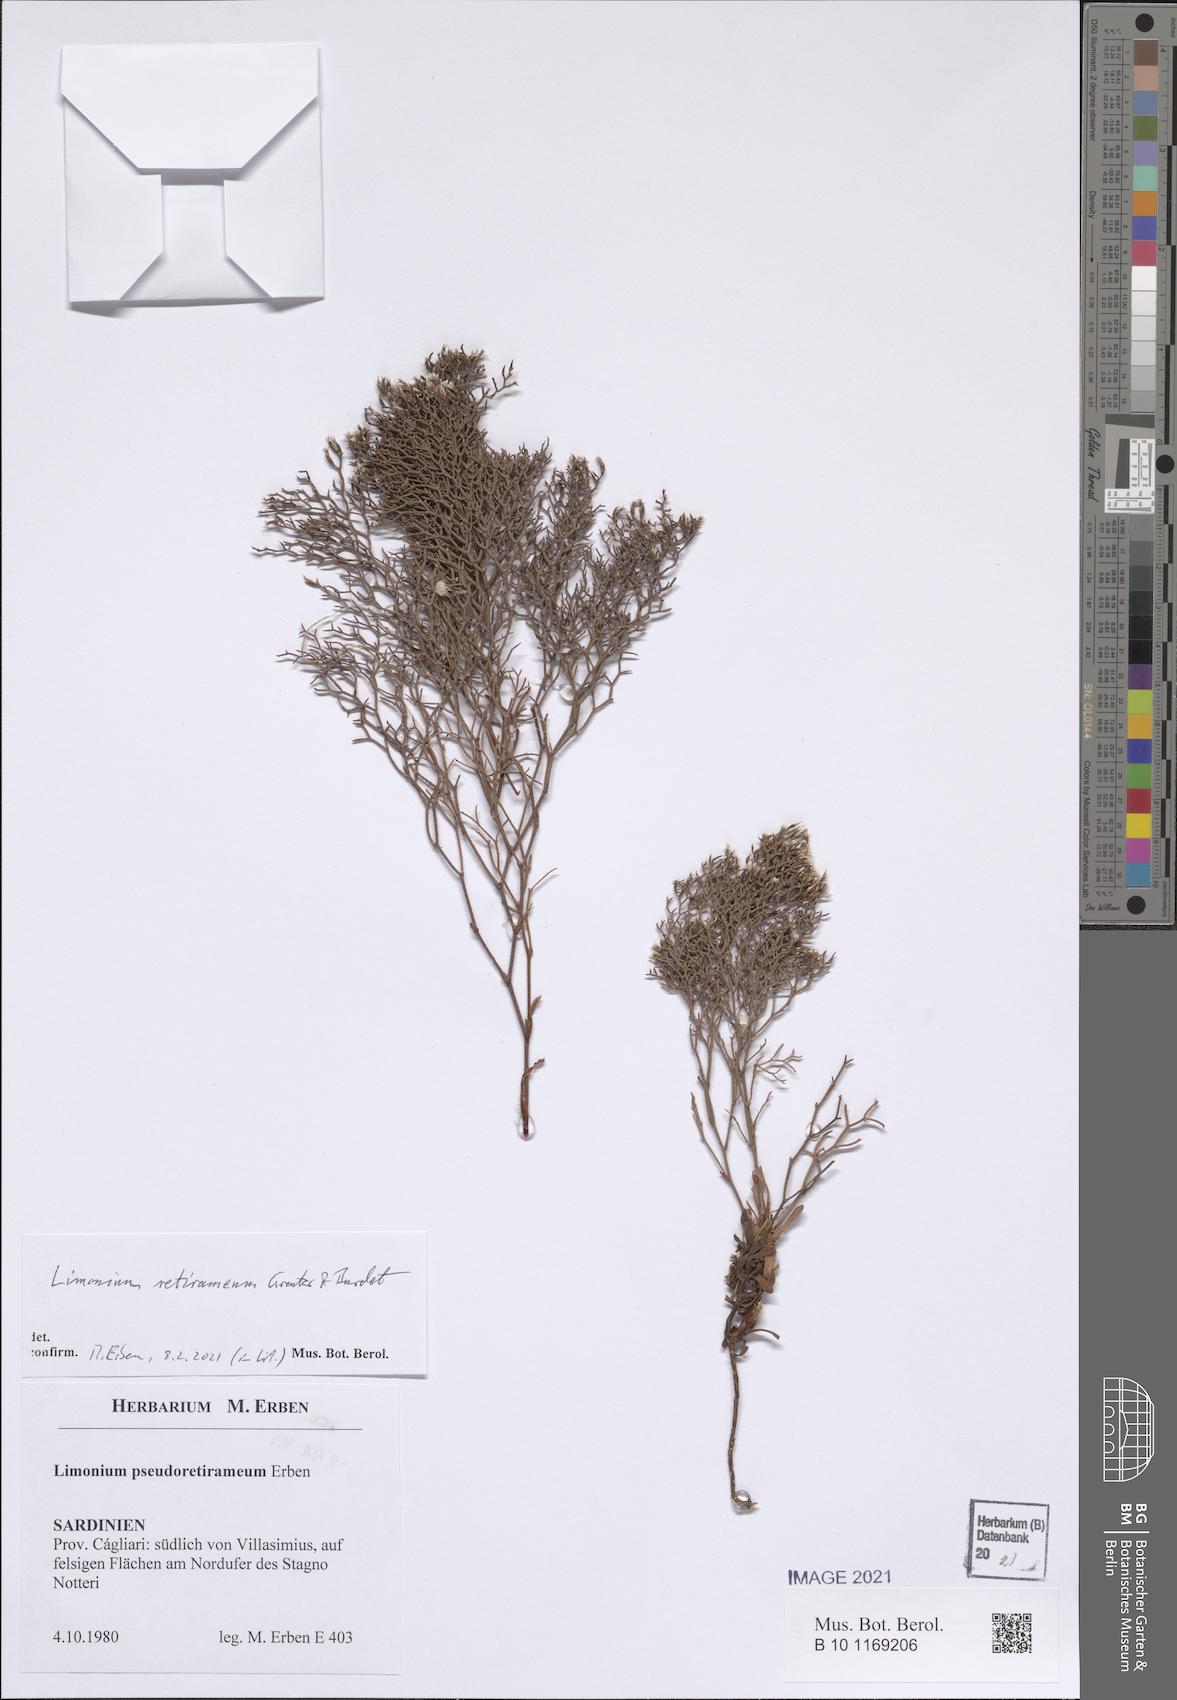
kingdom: Plantae
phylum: Tracheophyta
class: Magnoliopsida
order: Caryophyllales
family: Plumbaginaceae
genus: Limonium
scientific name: Limonium retirameum
